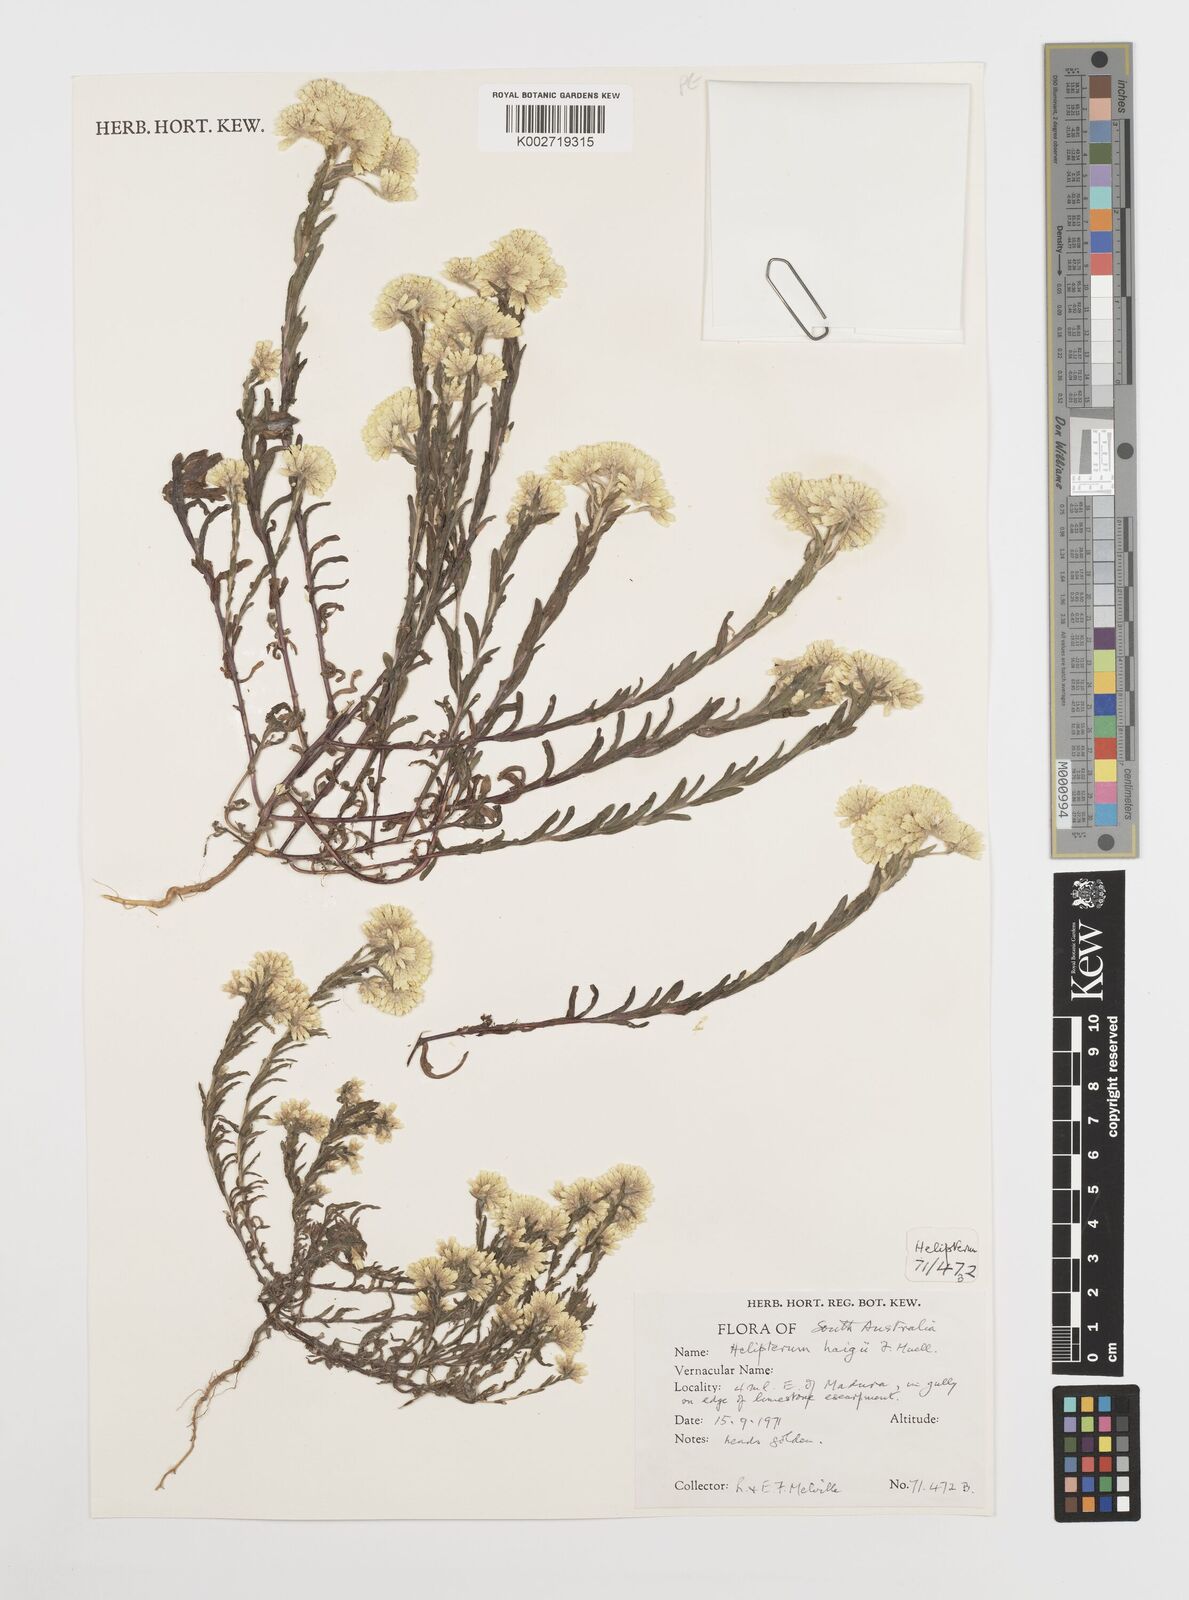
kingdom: Plantae
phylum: Tracheophyta
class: Magnoliopsida
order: Asterales
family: Asteraceae
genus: Rhodanthe
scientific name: Rhodanthe haigii
